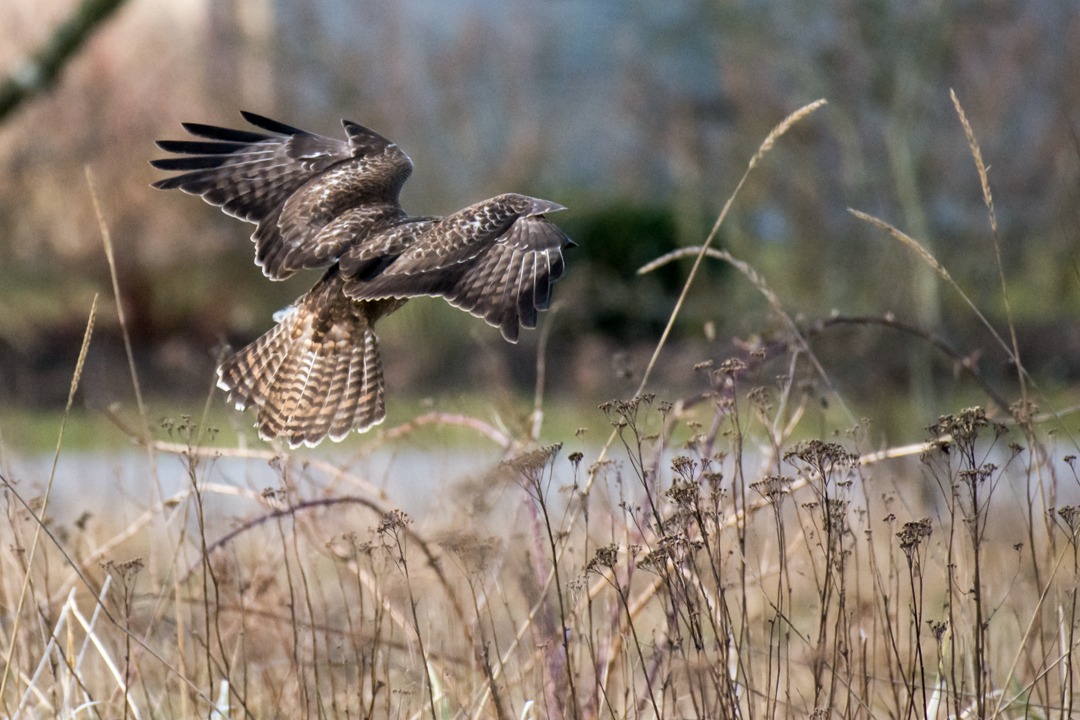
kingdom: Animalia
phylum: Chordata
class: Aves
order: Accipitriformes
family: Accipitridae
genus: Buteo
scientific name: Buteo buteo
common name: Musvåge
